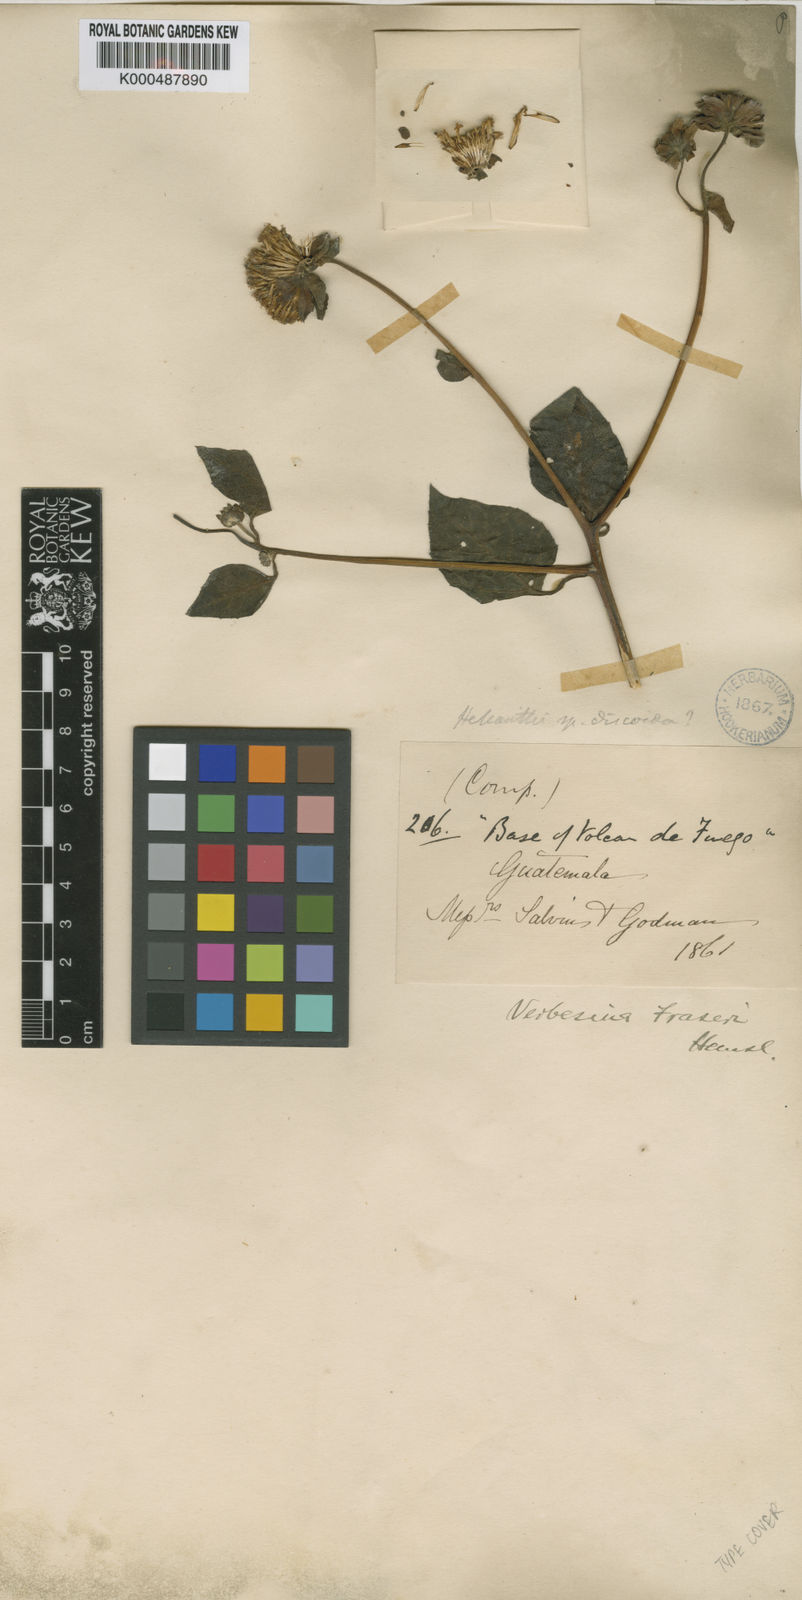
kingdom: Plantae
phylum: Tracheophyta
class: Magnoliopsida
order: Asterales
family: Asteraceae
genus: Verbesina
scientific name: Verbesina fraseri
